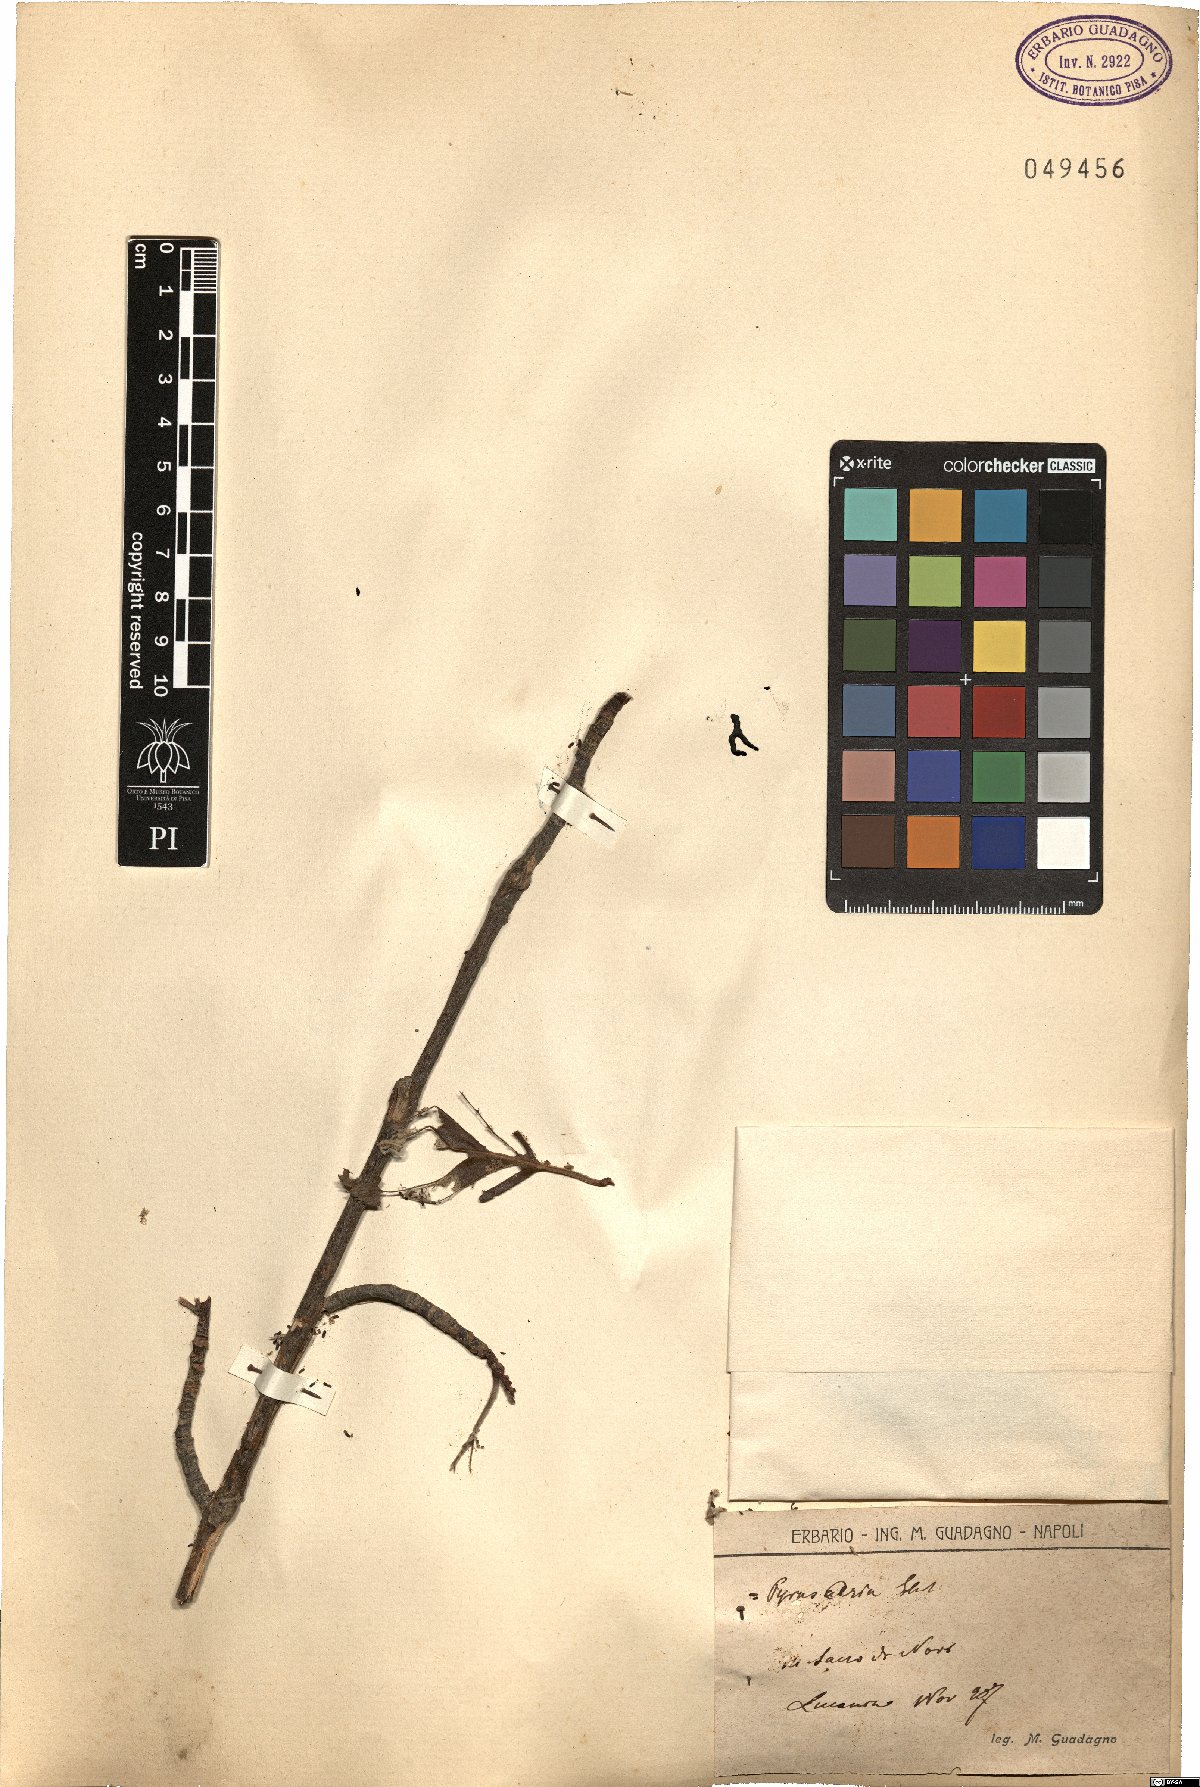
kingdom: Plantae
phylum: Tracheophyta
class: Magnoliopsida
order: Rosales
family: Rosaceae
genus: Aria
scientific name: Aria edulis
